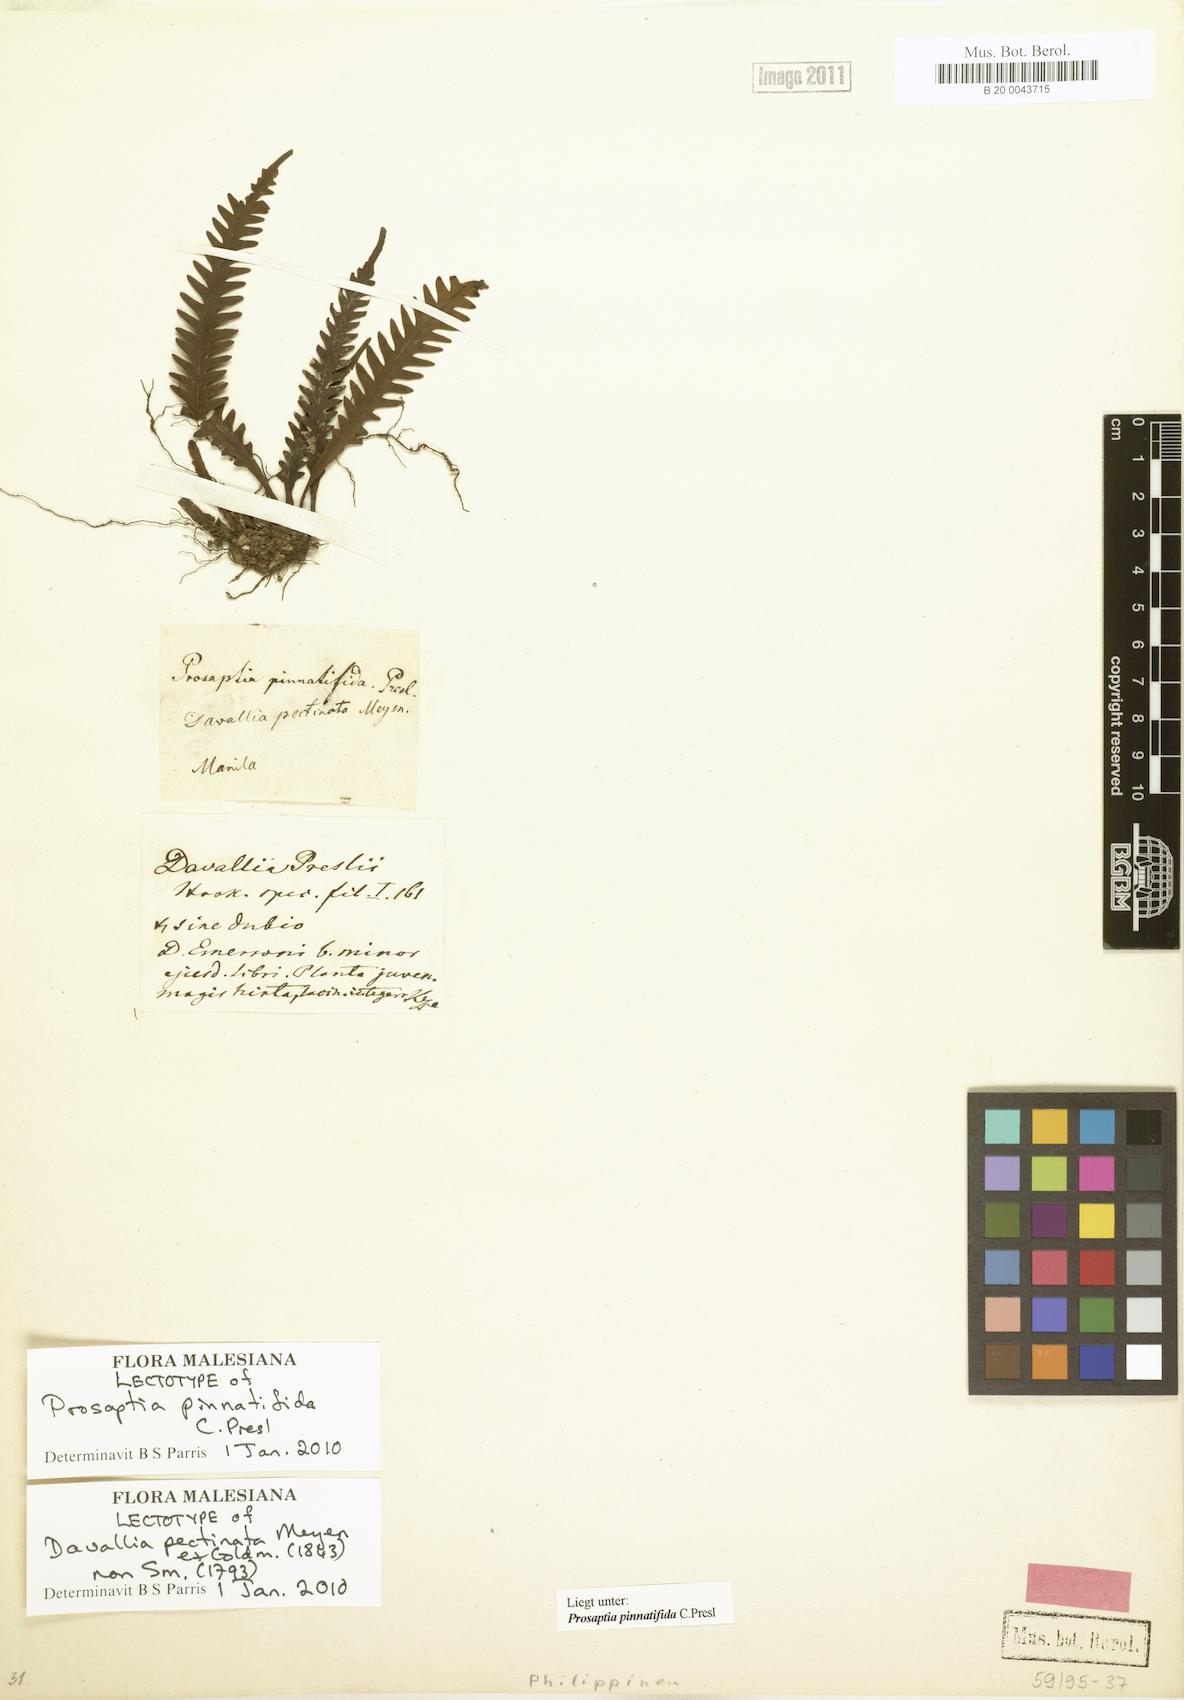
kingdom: Plantae
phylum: Tracheophyta
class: Polypodiopsida
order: Polypodiales
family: Polypodiaceae
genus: Prosaptia
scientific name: Prosaptia pinnatifida
